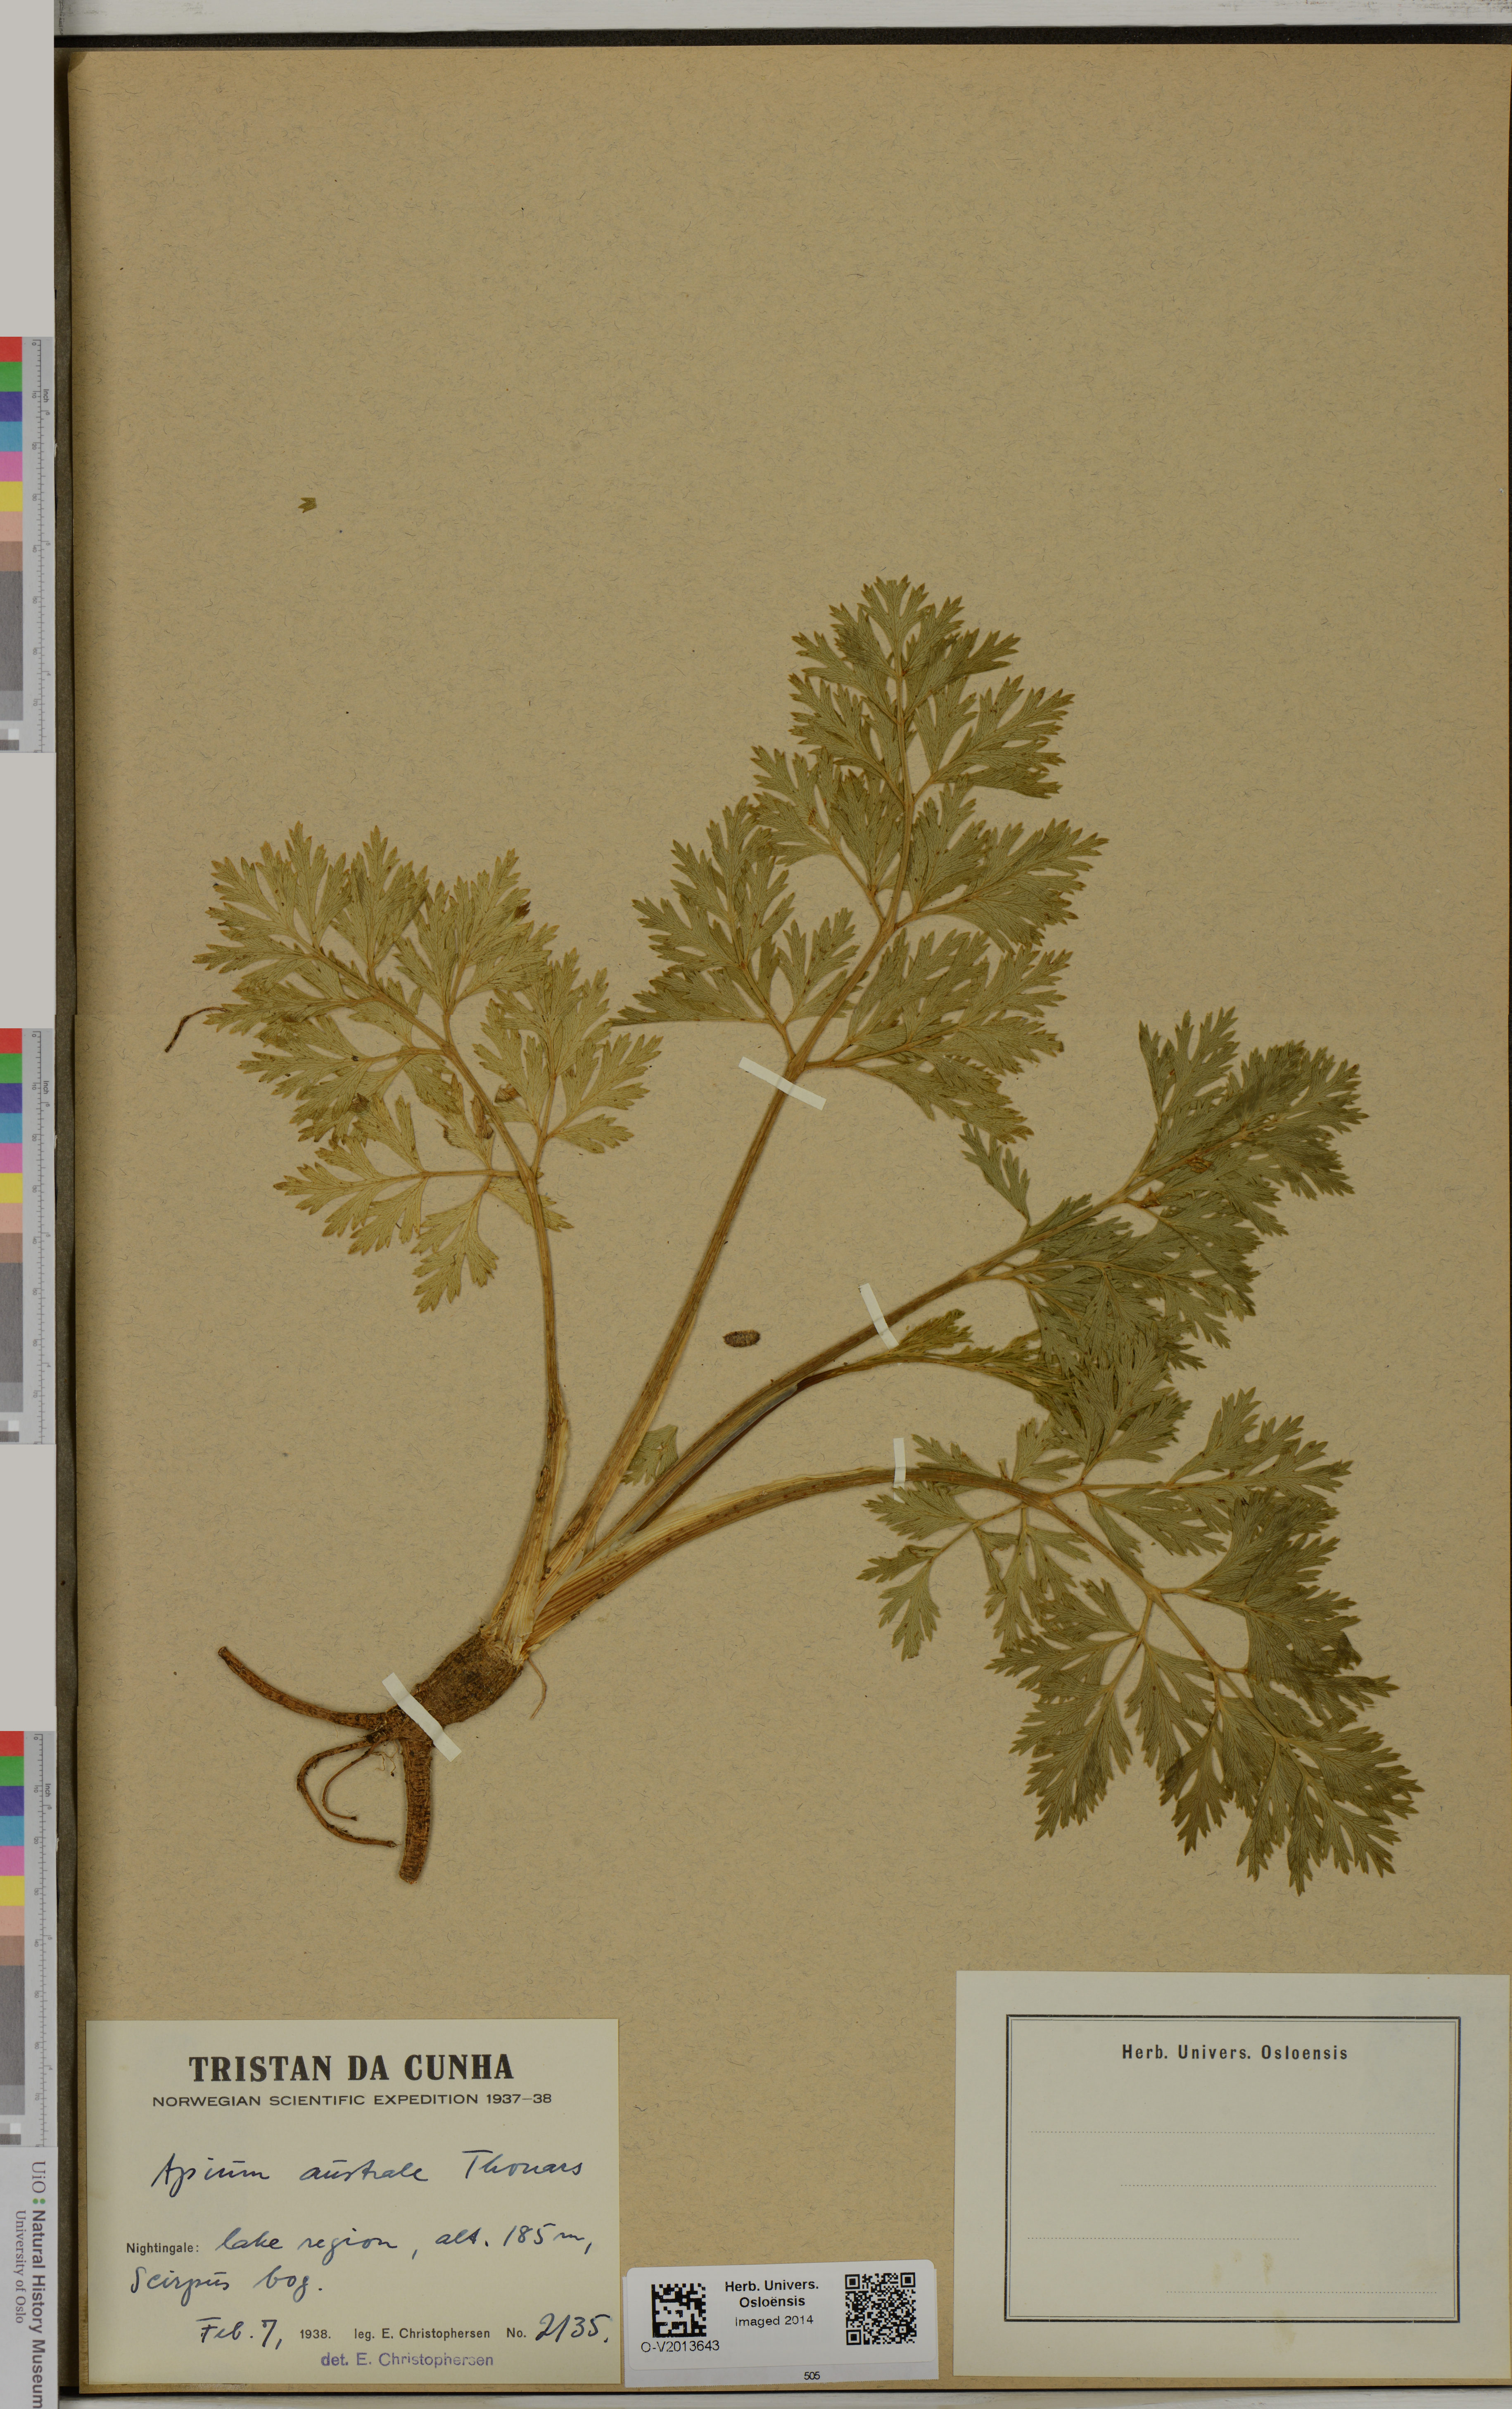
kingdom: Plantae
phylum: Tracheophyta
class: Magnoliopsida
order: Apiales
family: Apiaceae
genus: Apium
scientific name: Apium prostratum
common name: Prostrate marshwort
